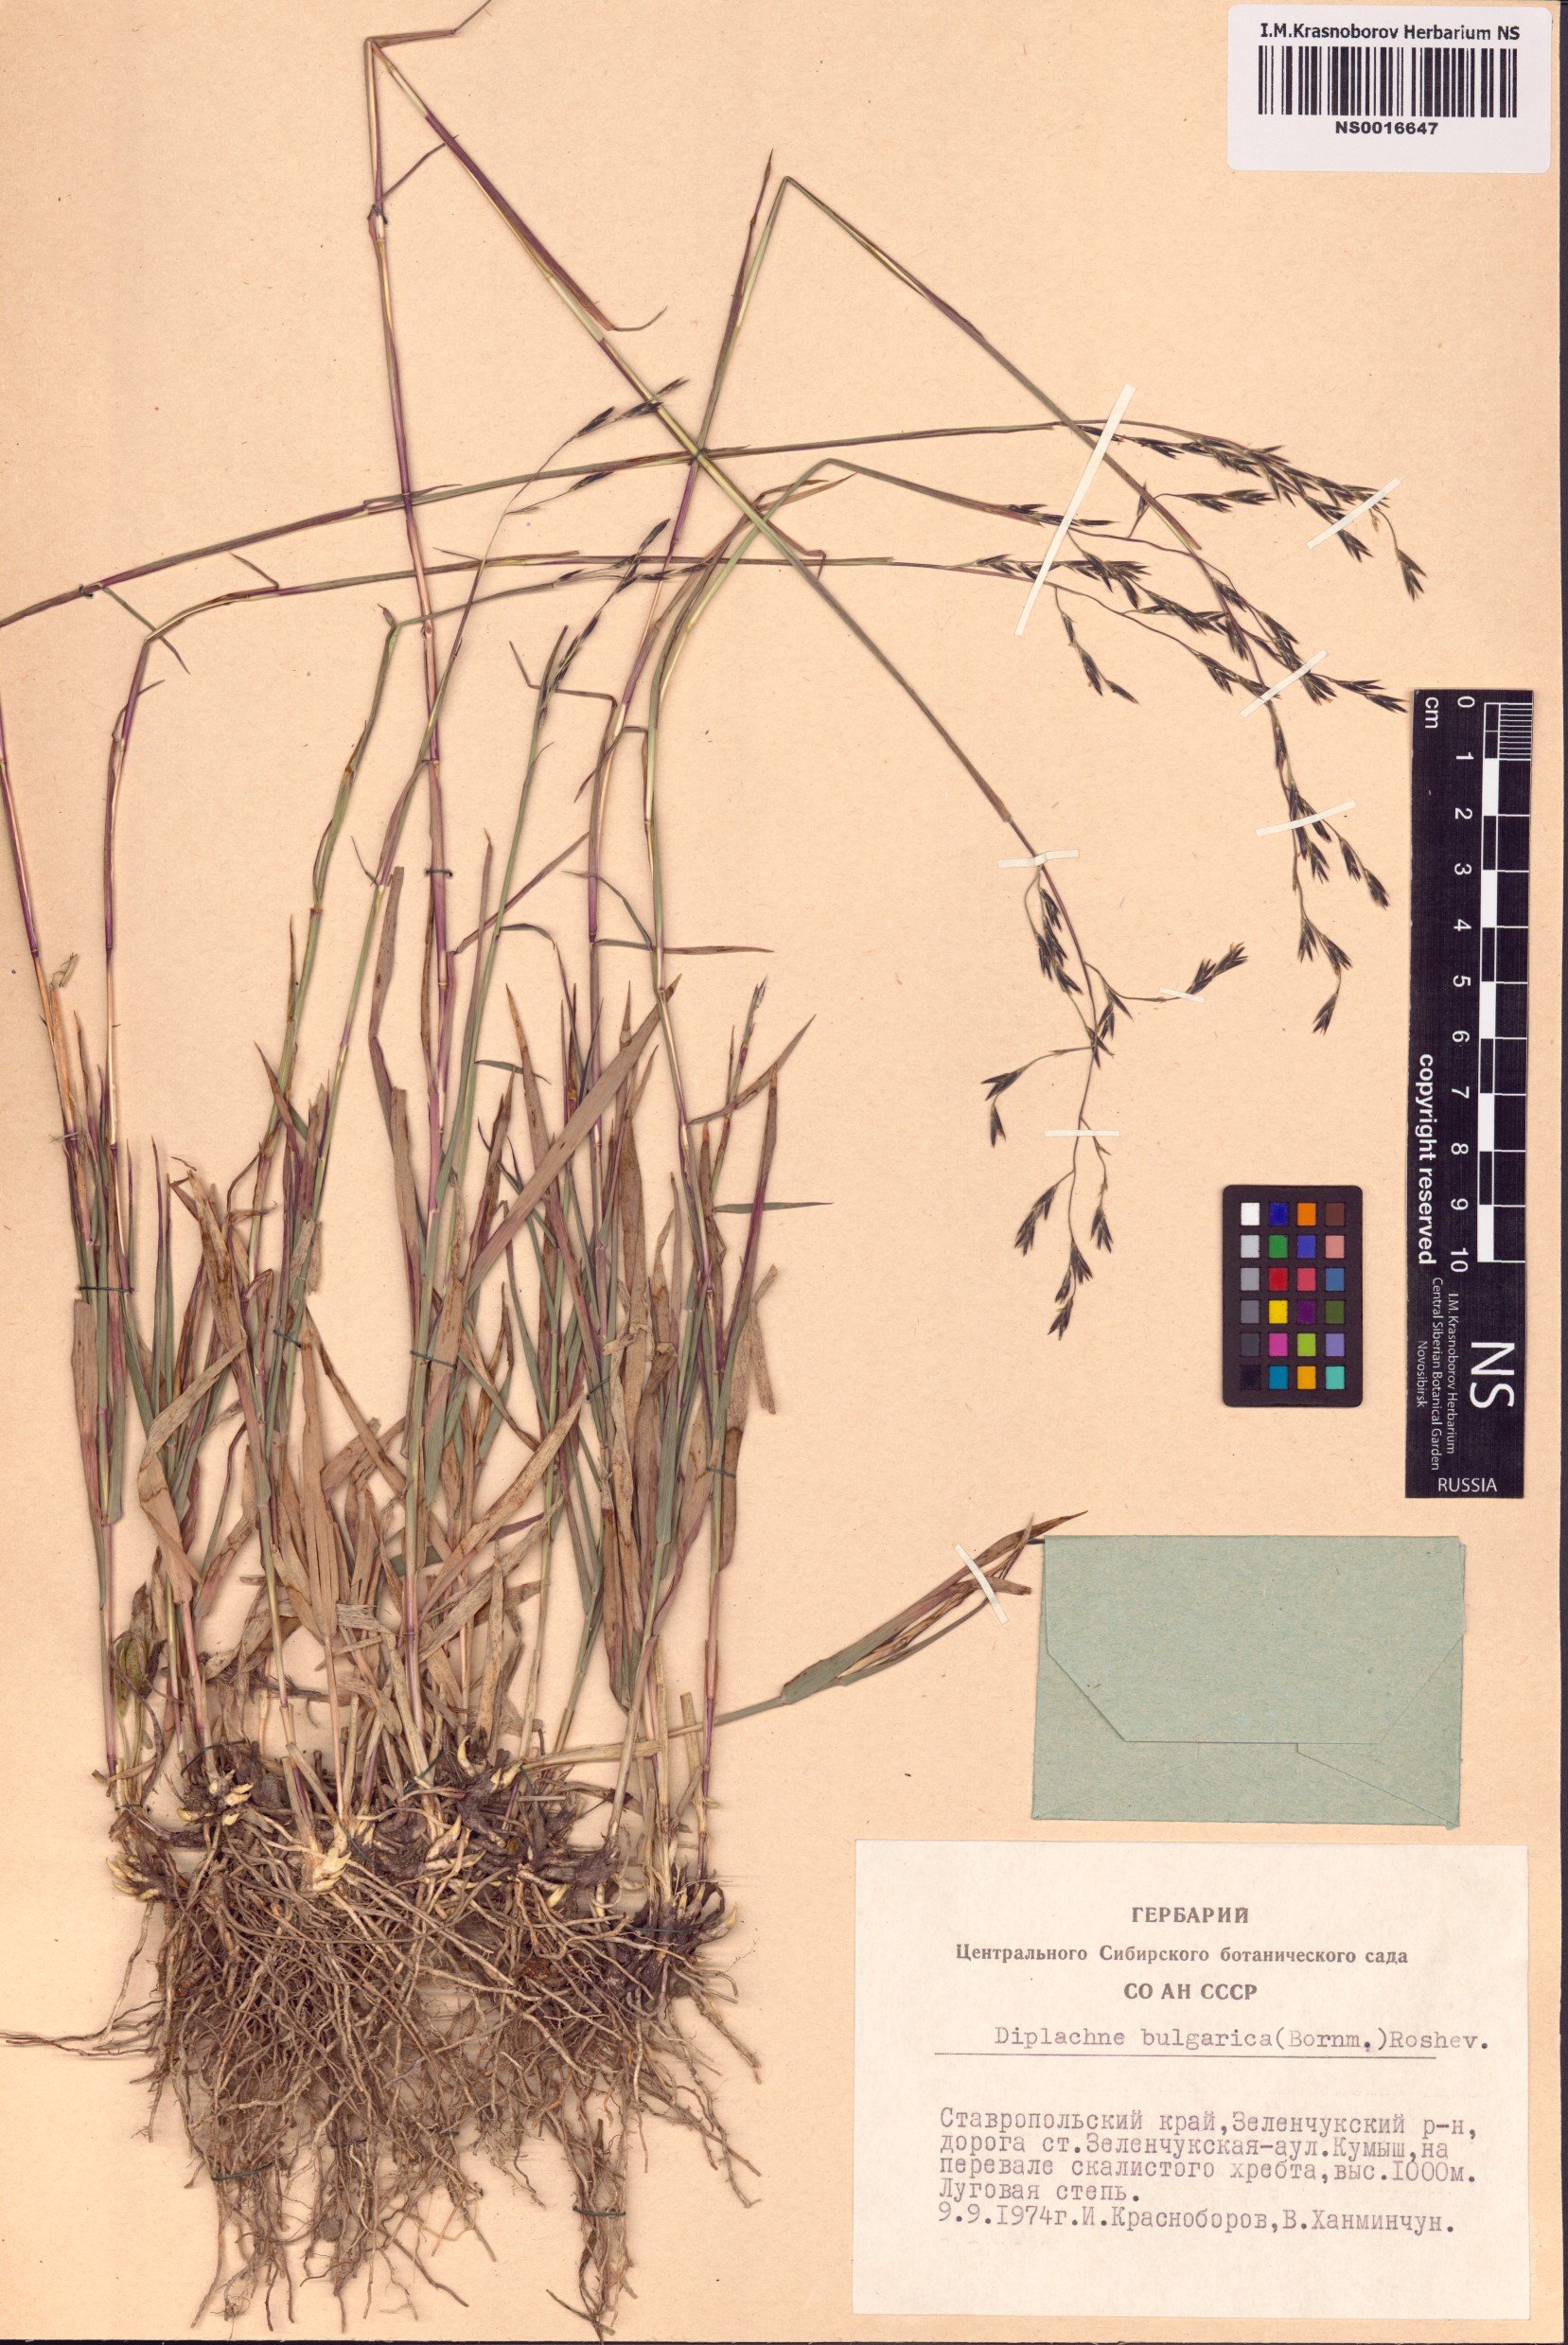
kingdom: Plantae
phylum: Tracheophyta
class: Liliopsida
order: Poales
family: Poaceae
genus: Cleistogenes
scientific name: Cleistogenes serotina
